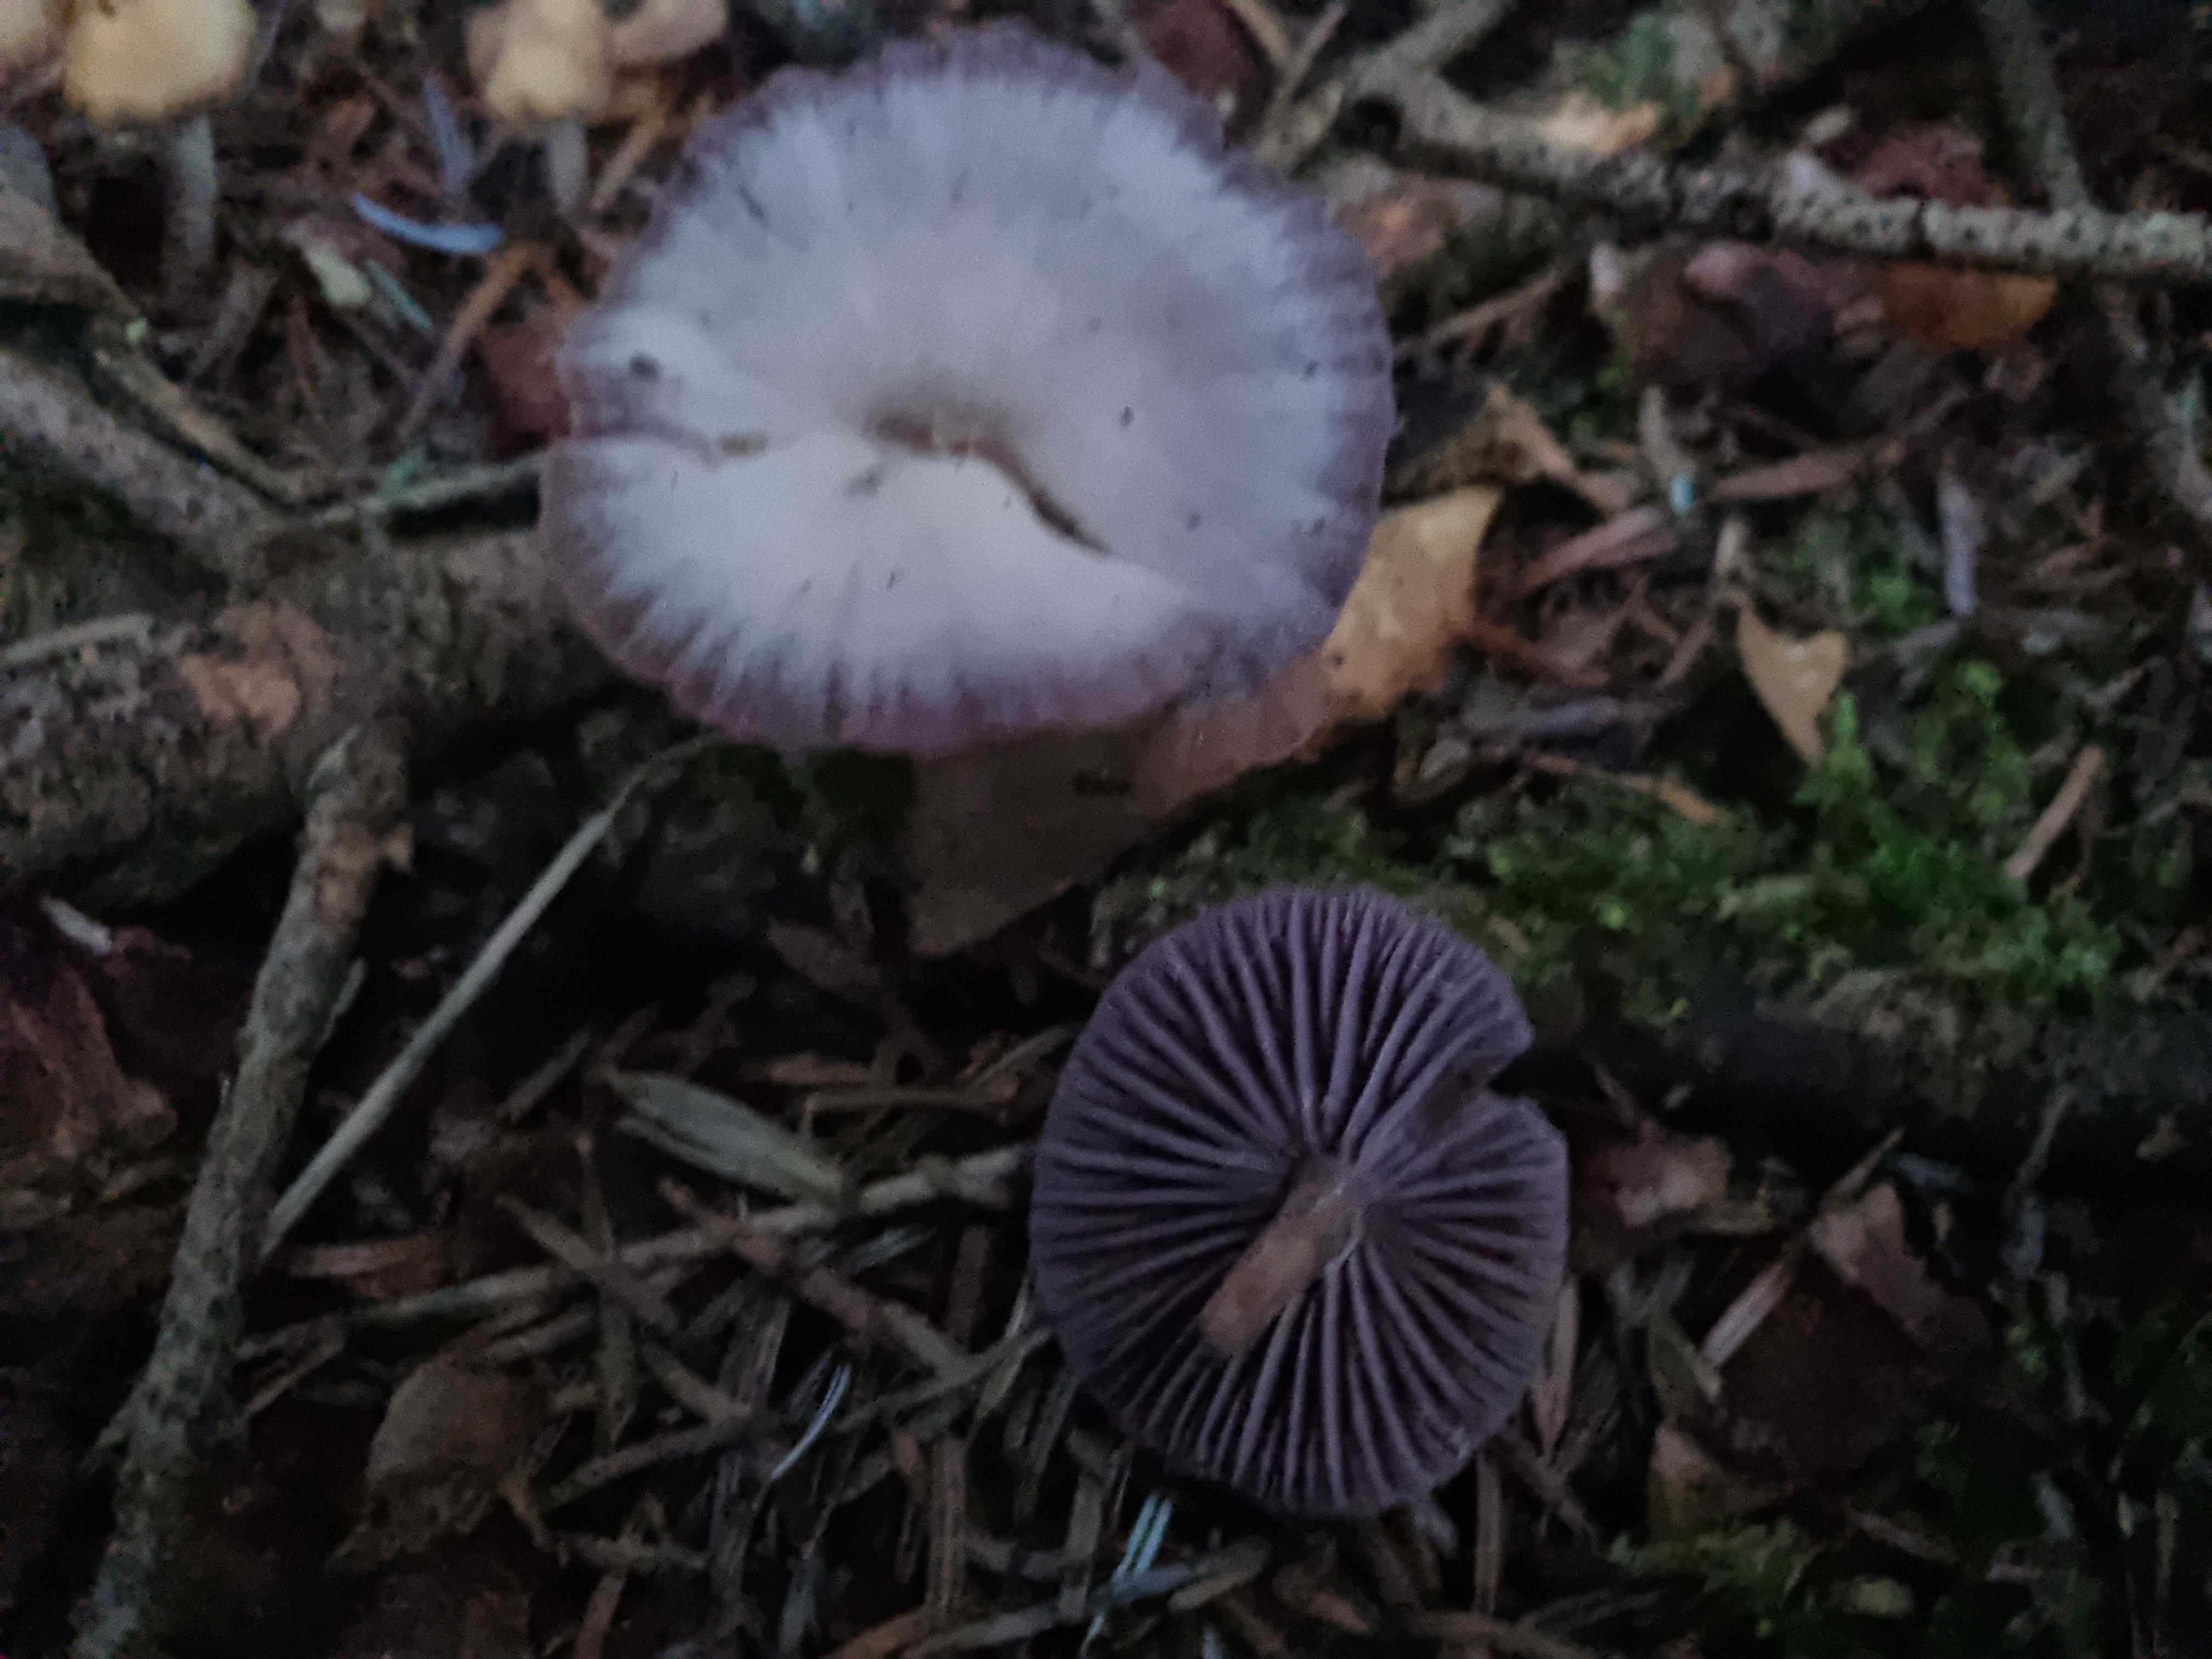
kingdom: Fungi
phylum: Basidiomycota
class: Agaricomycetes
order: Agaricales
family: Hydnangiaceae
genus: Laccaria
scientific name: Laccaria amethystina
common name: violet ametysthat
